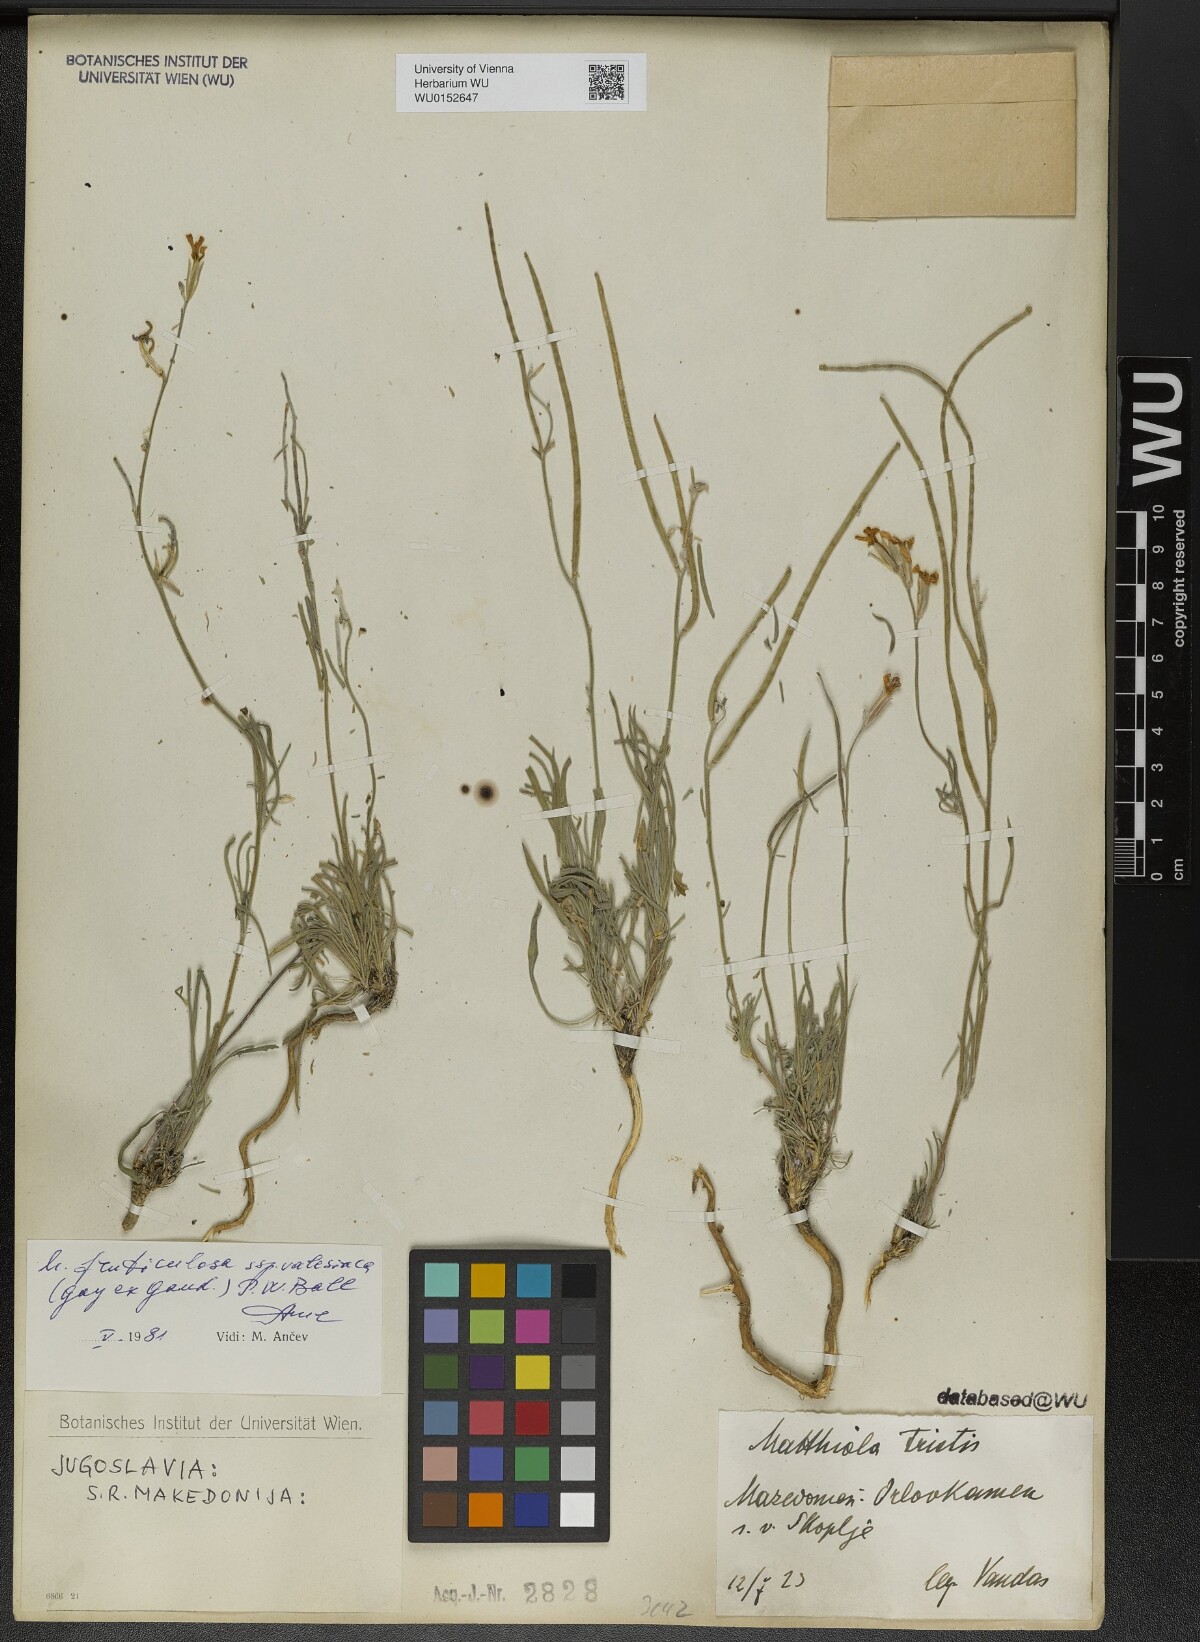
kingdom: Plantae
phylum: Tracheophyta
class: Magnoliopsida
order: Brassicales
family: Brassicaceae
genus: Matthiola
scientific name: Matthiola fruticulosa
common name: Sad stock
